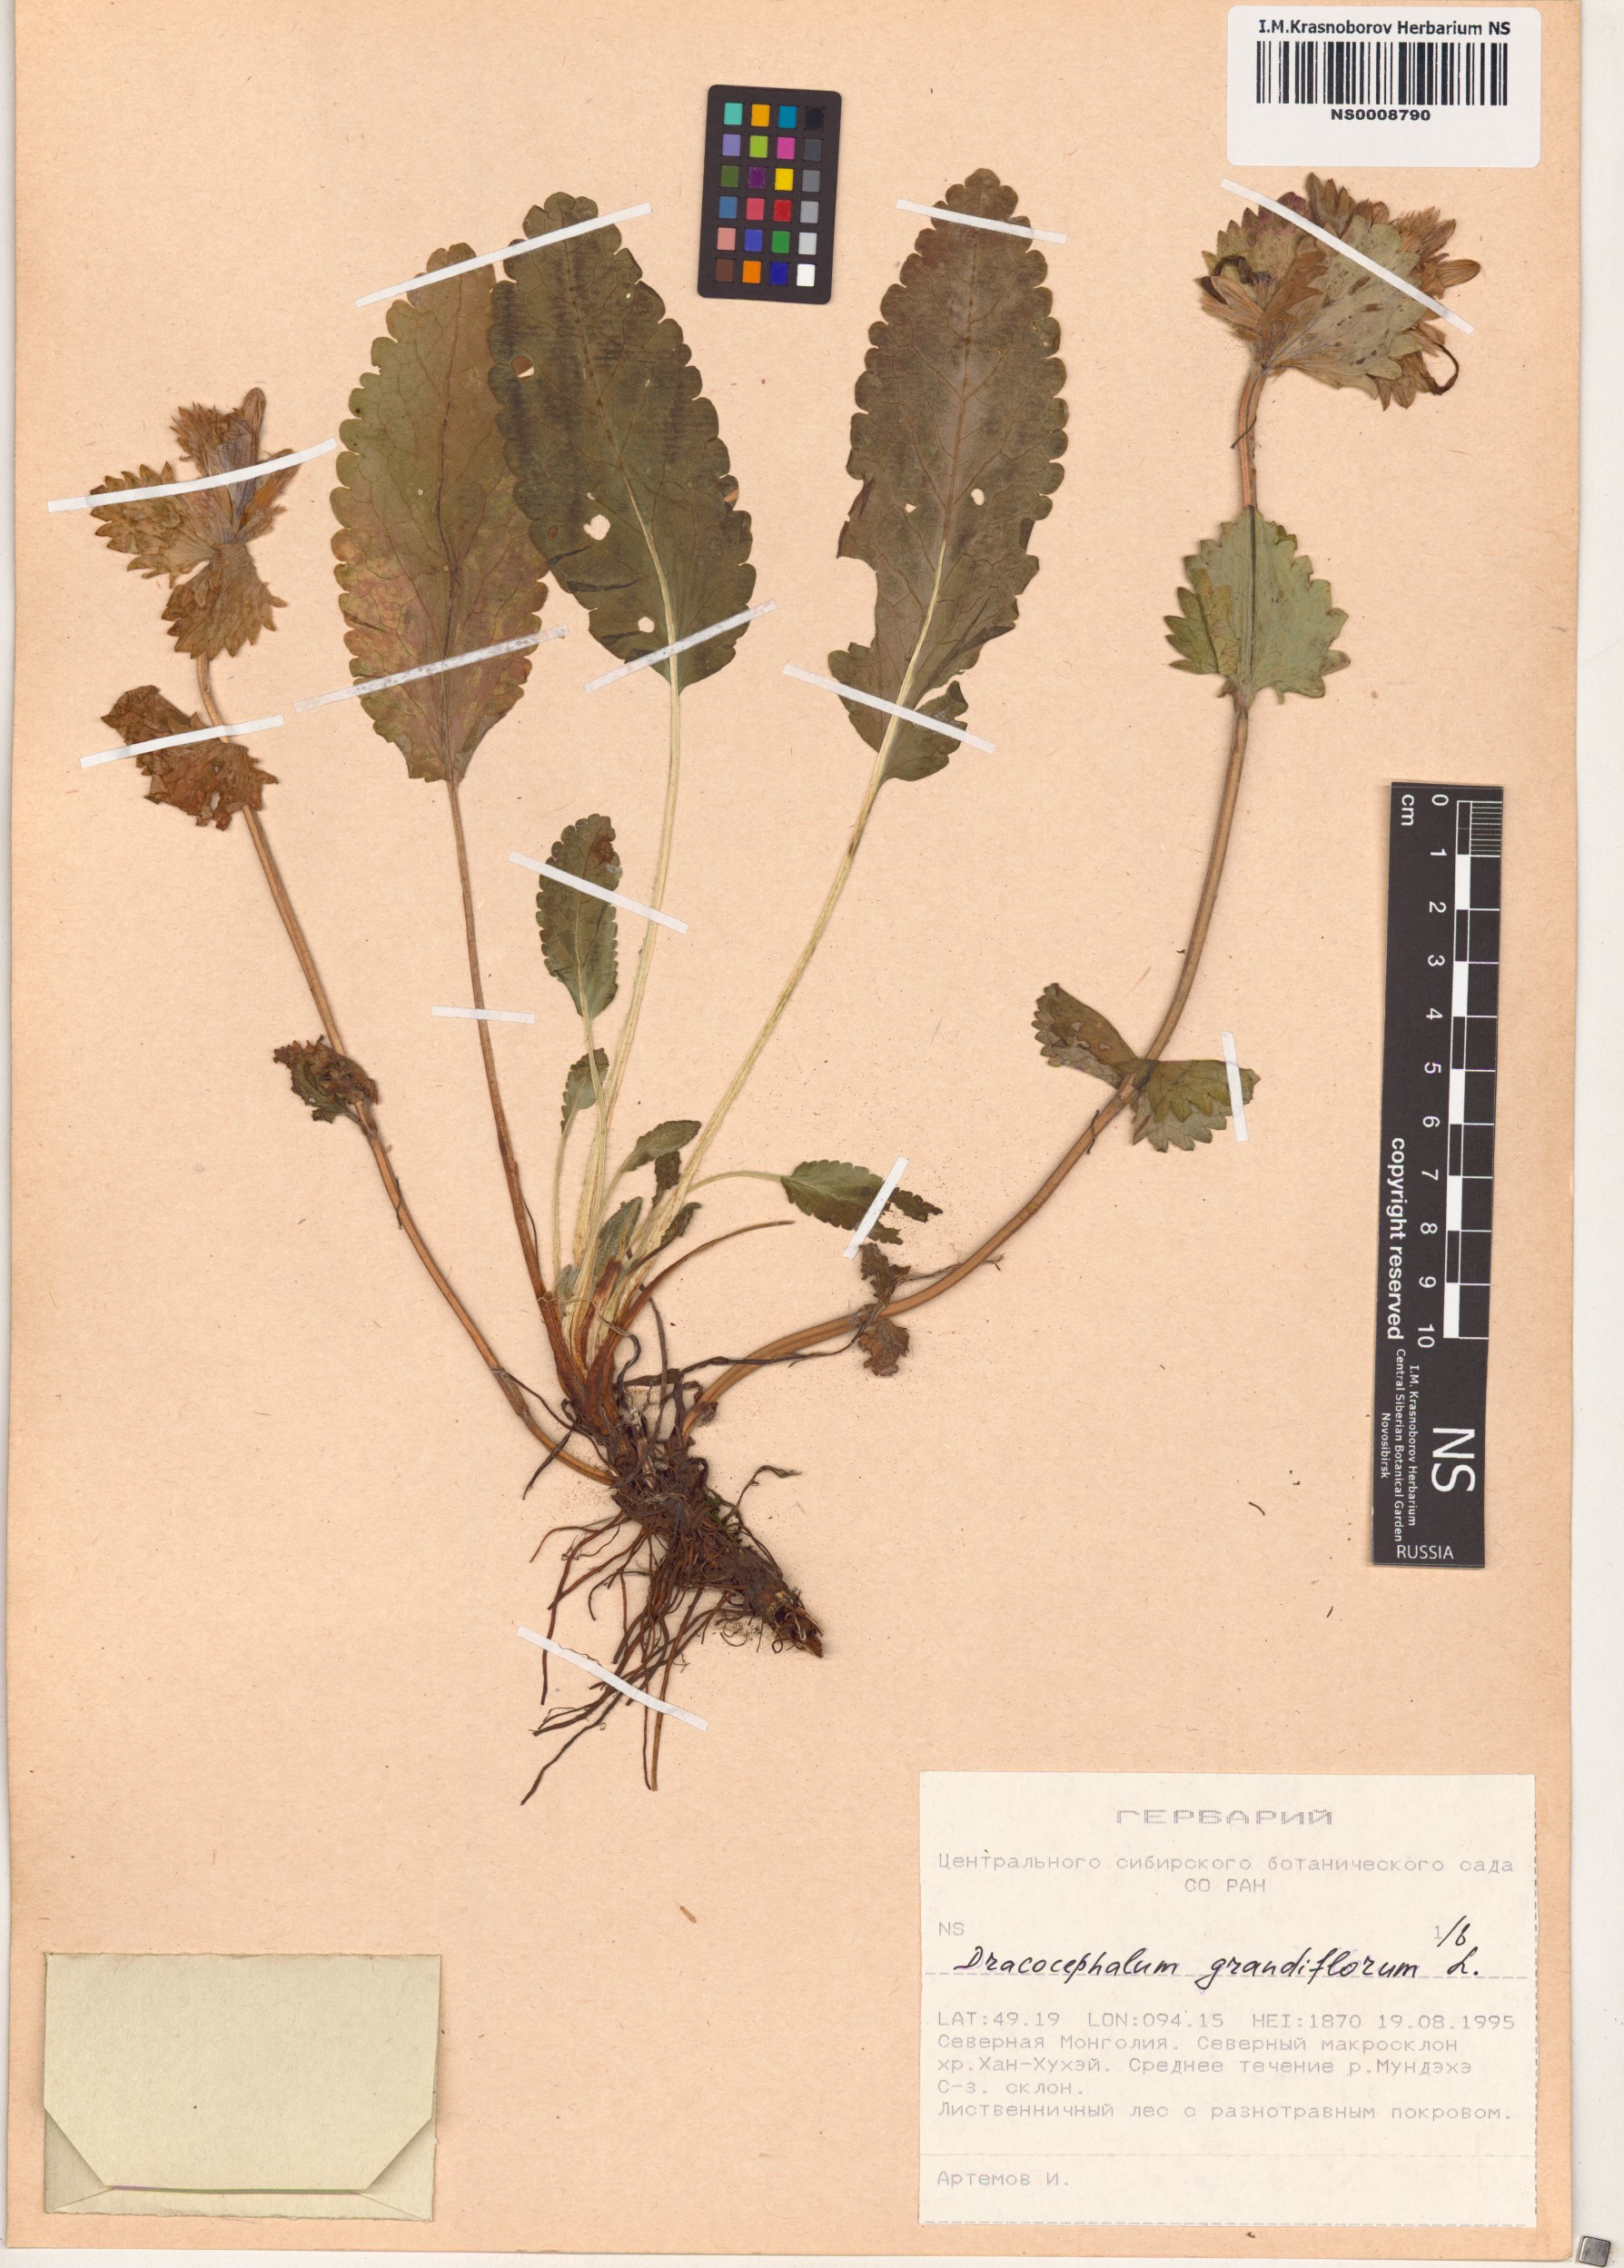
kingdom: Plantae
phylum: Tracheophyta
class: Magnoliopsida
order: Lamiales
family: Lamiaceae
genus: Dracocephalum
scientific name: Dracocephalum grandiflorum
